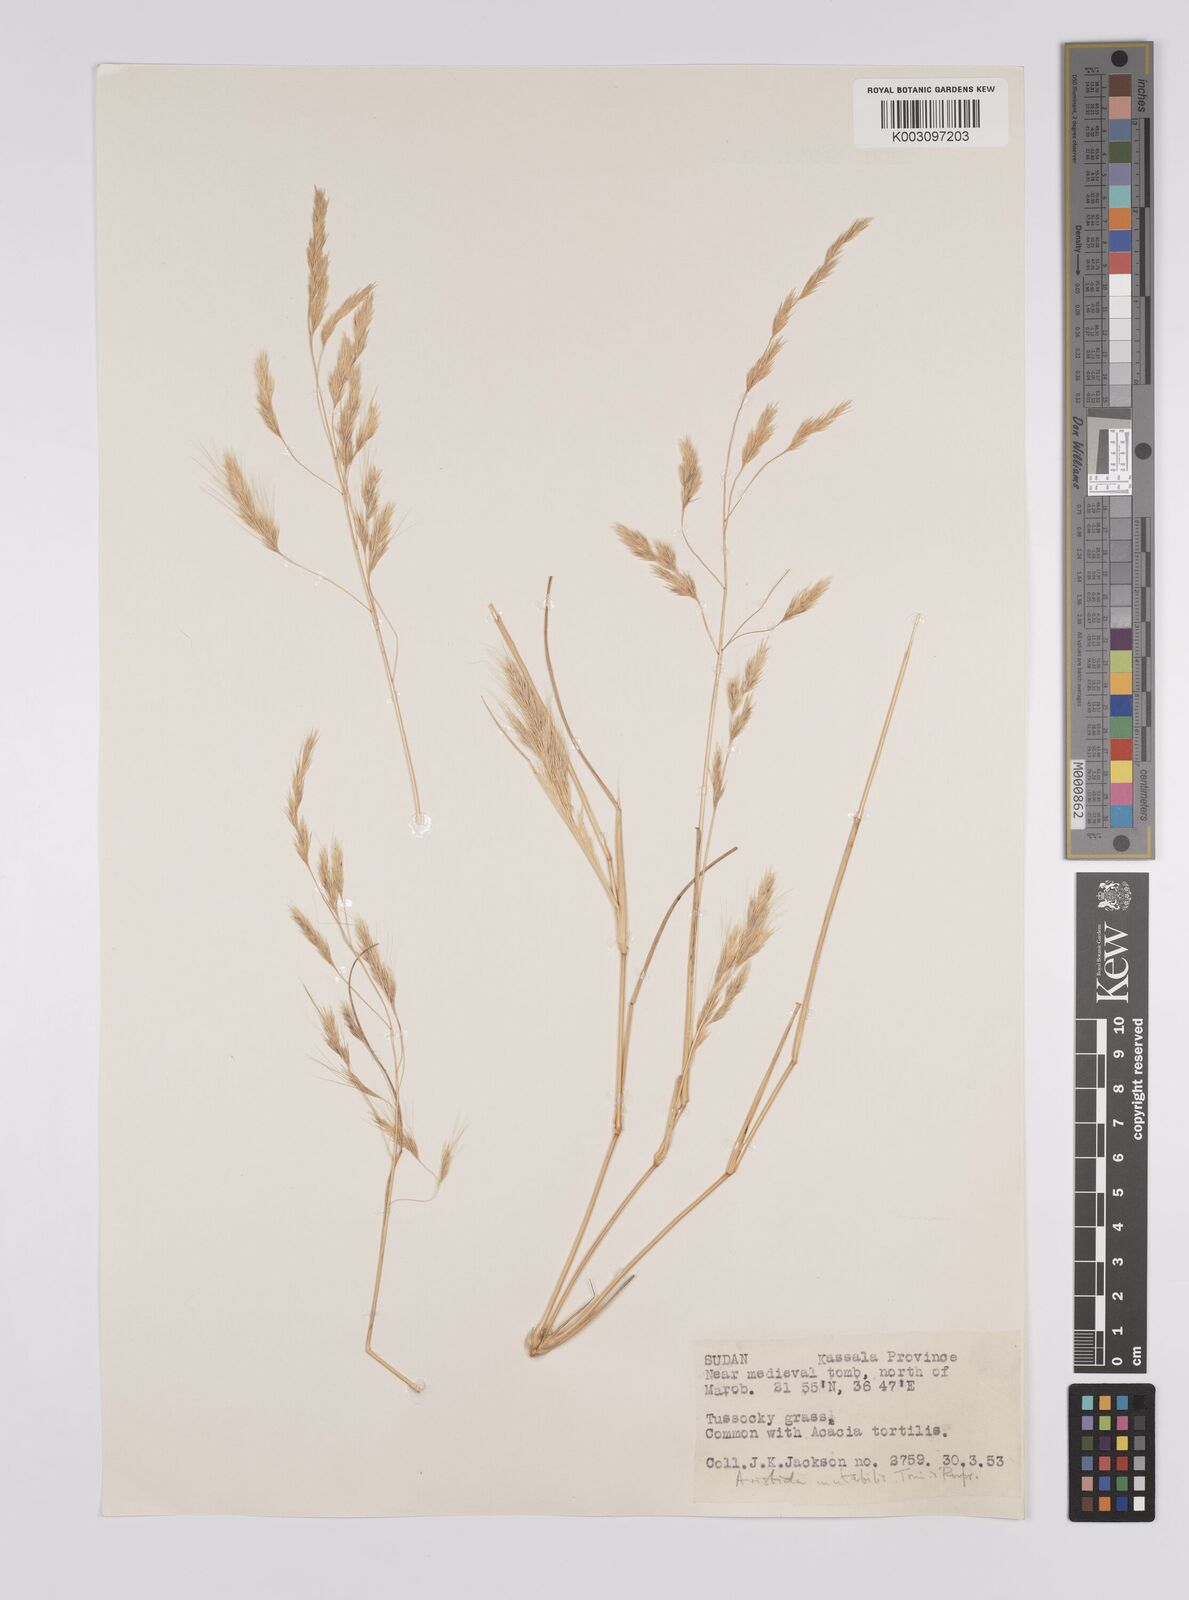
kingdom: Plantae
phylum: Tracheophyta
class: Liliopsida
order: Poales
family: Poaceae
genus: Aristida
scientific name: Aristida mutabilis
